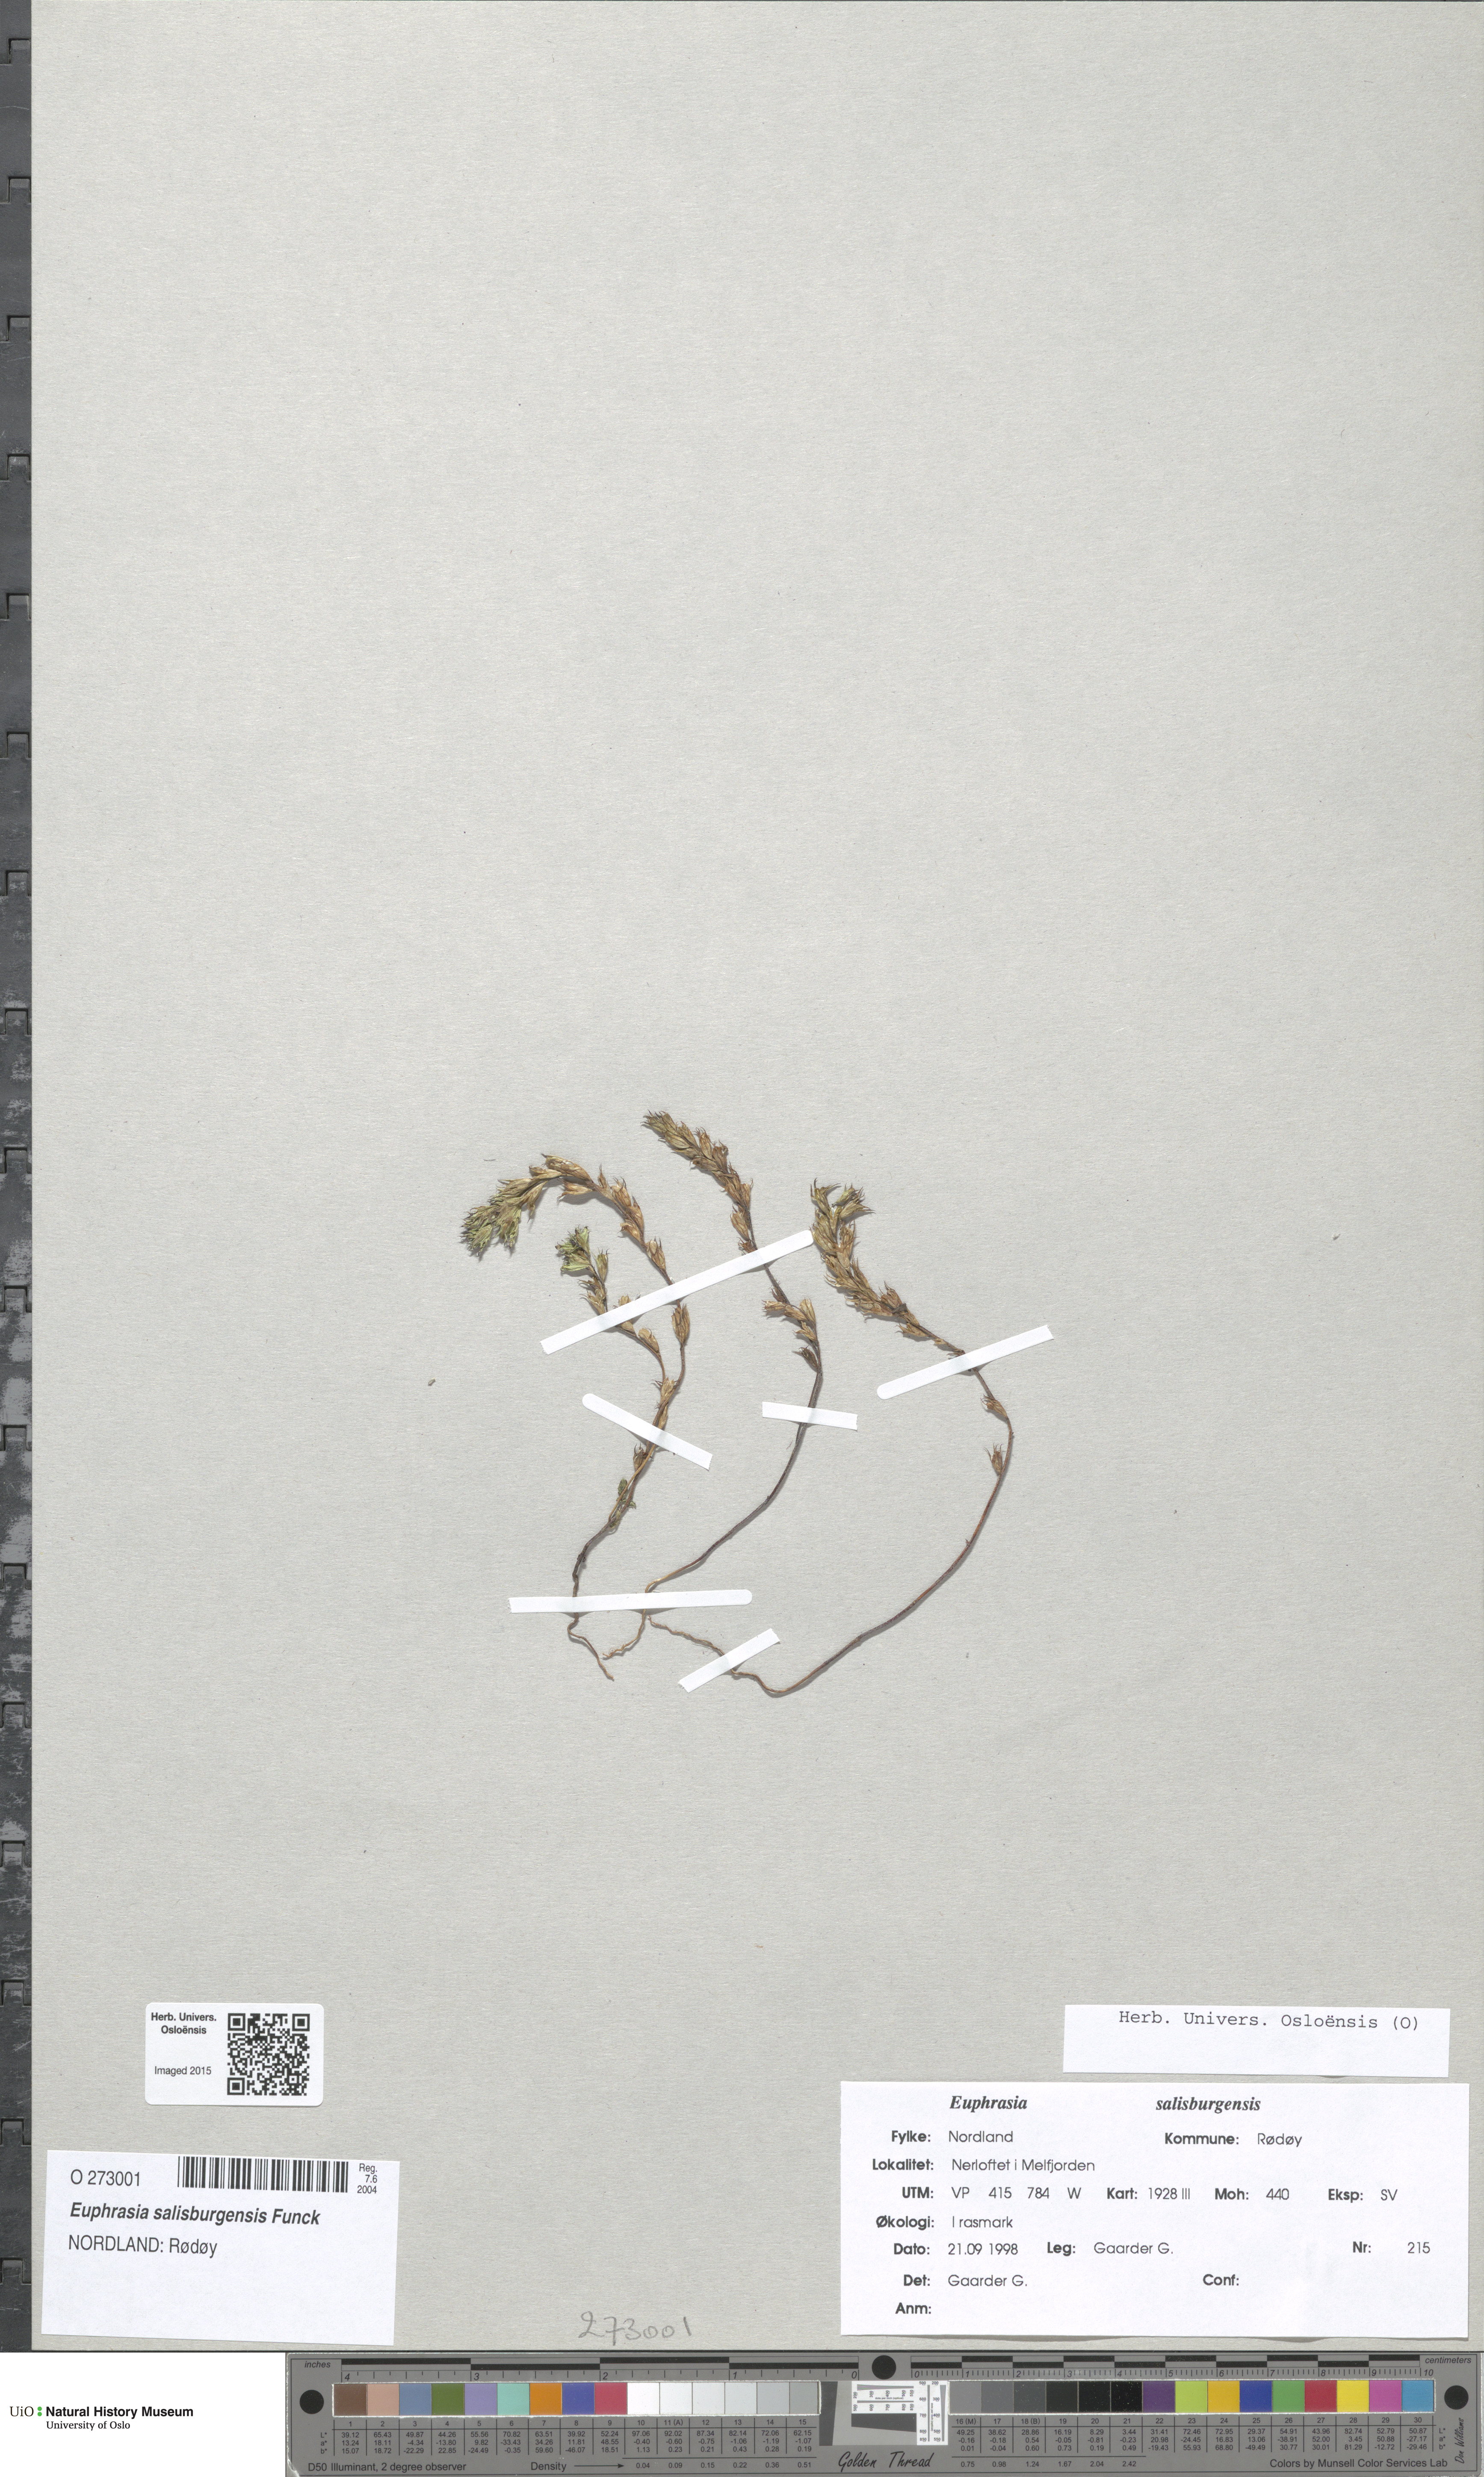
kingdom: Plantae
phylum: Tracheophyta
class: Magnoliopsida
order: Lamiales
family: Orobanchaceae
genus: Euphrasia
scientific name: Euphrasia salisburgensis
